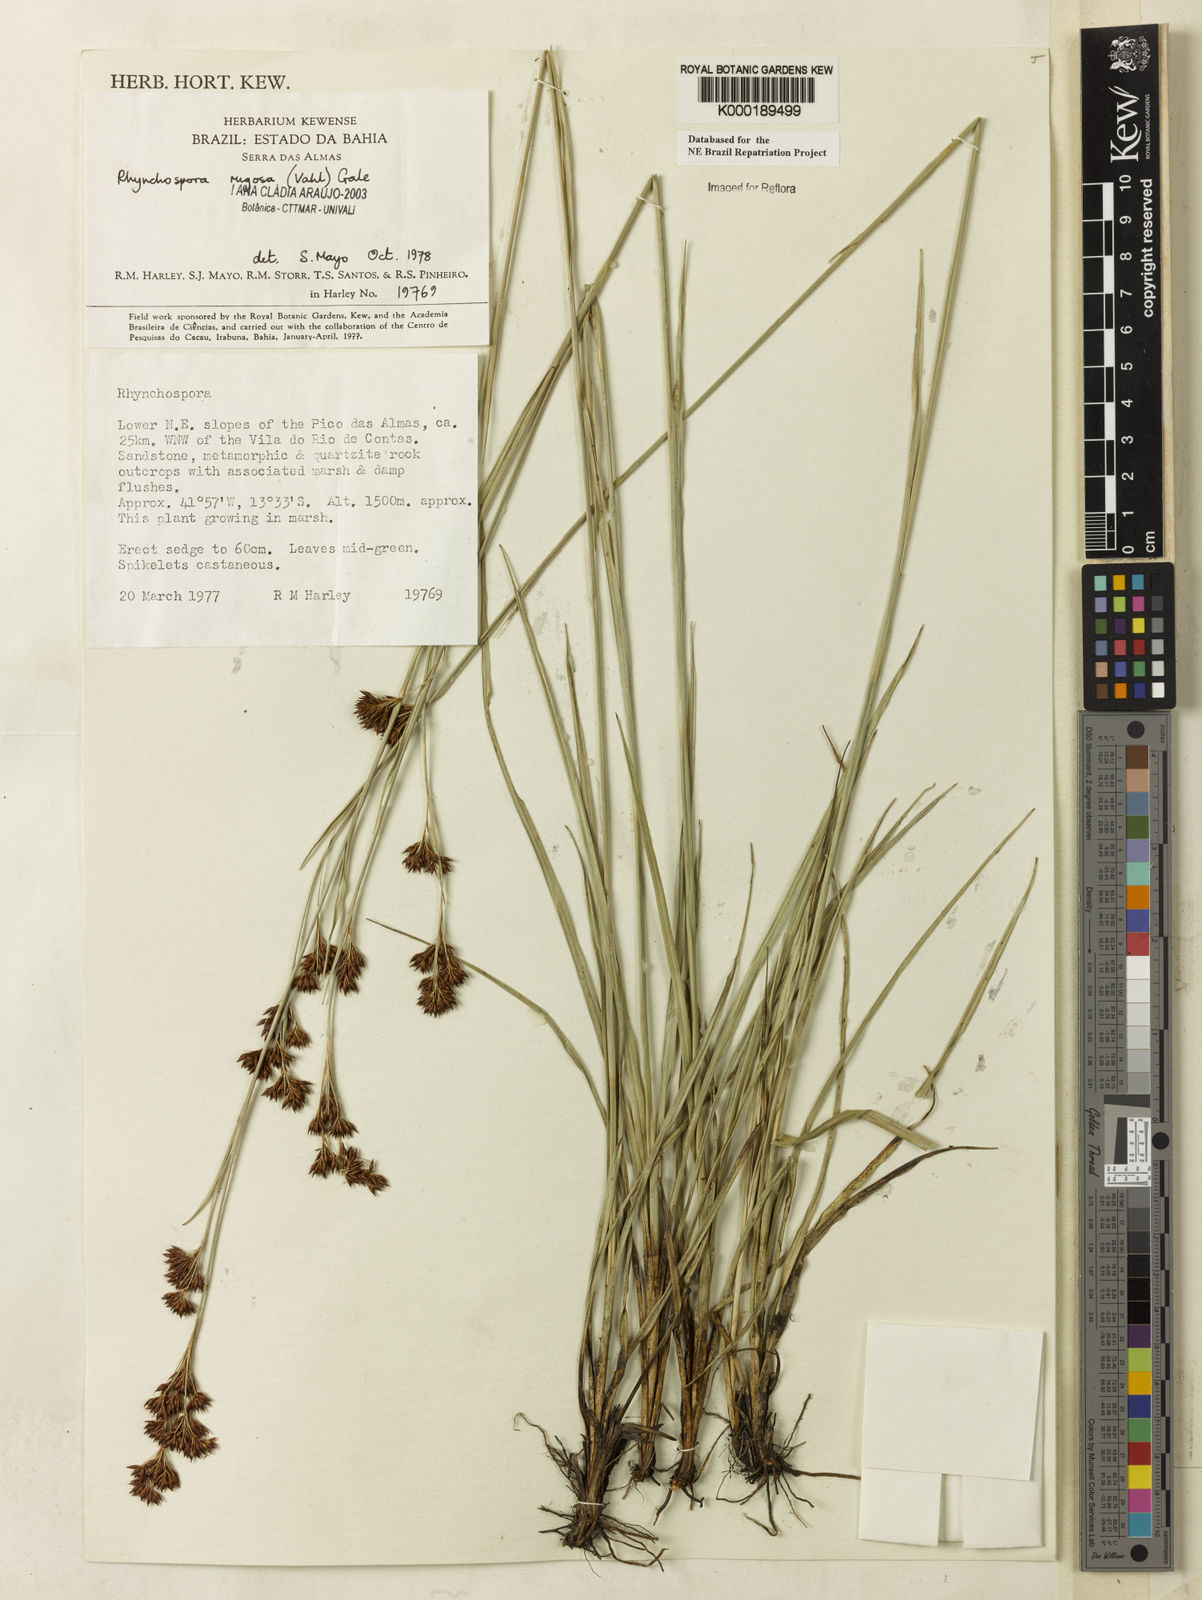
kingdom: Plantae
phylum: Tracheophyta
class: Liliopsida
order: Poales
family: Cyperaceae
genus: Rhynchospora
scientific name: Rhynchospora rugosa
